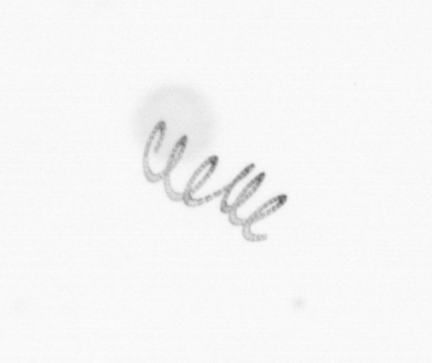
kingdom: Chromista
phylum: Ochrophyta
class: Bacillariophyceae
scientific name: Bacillariophyceae
